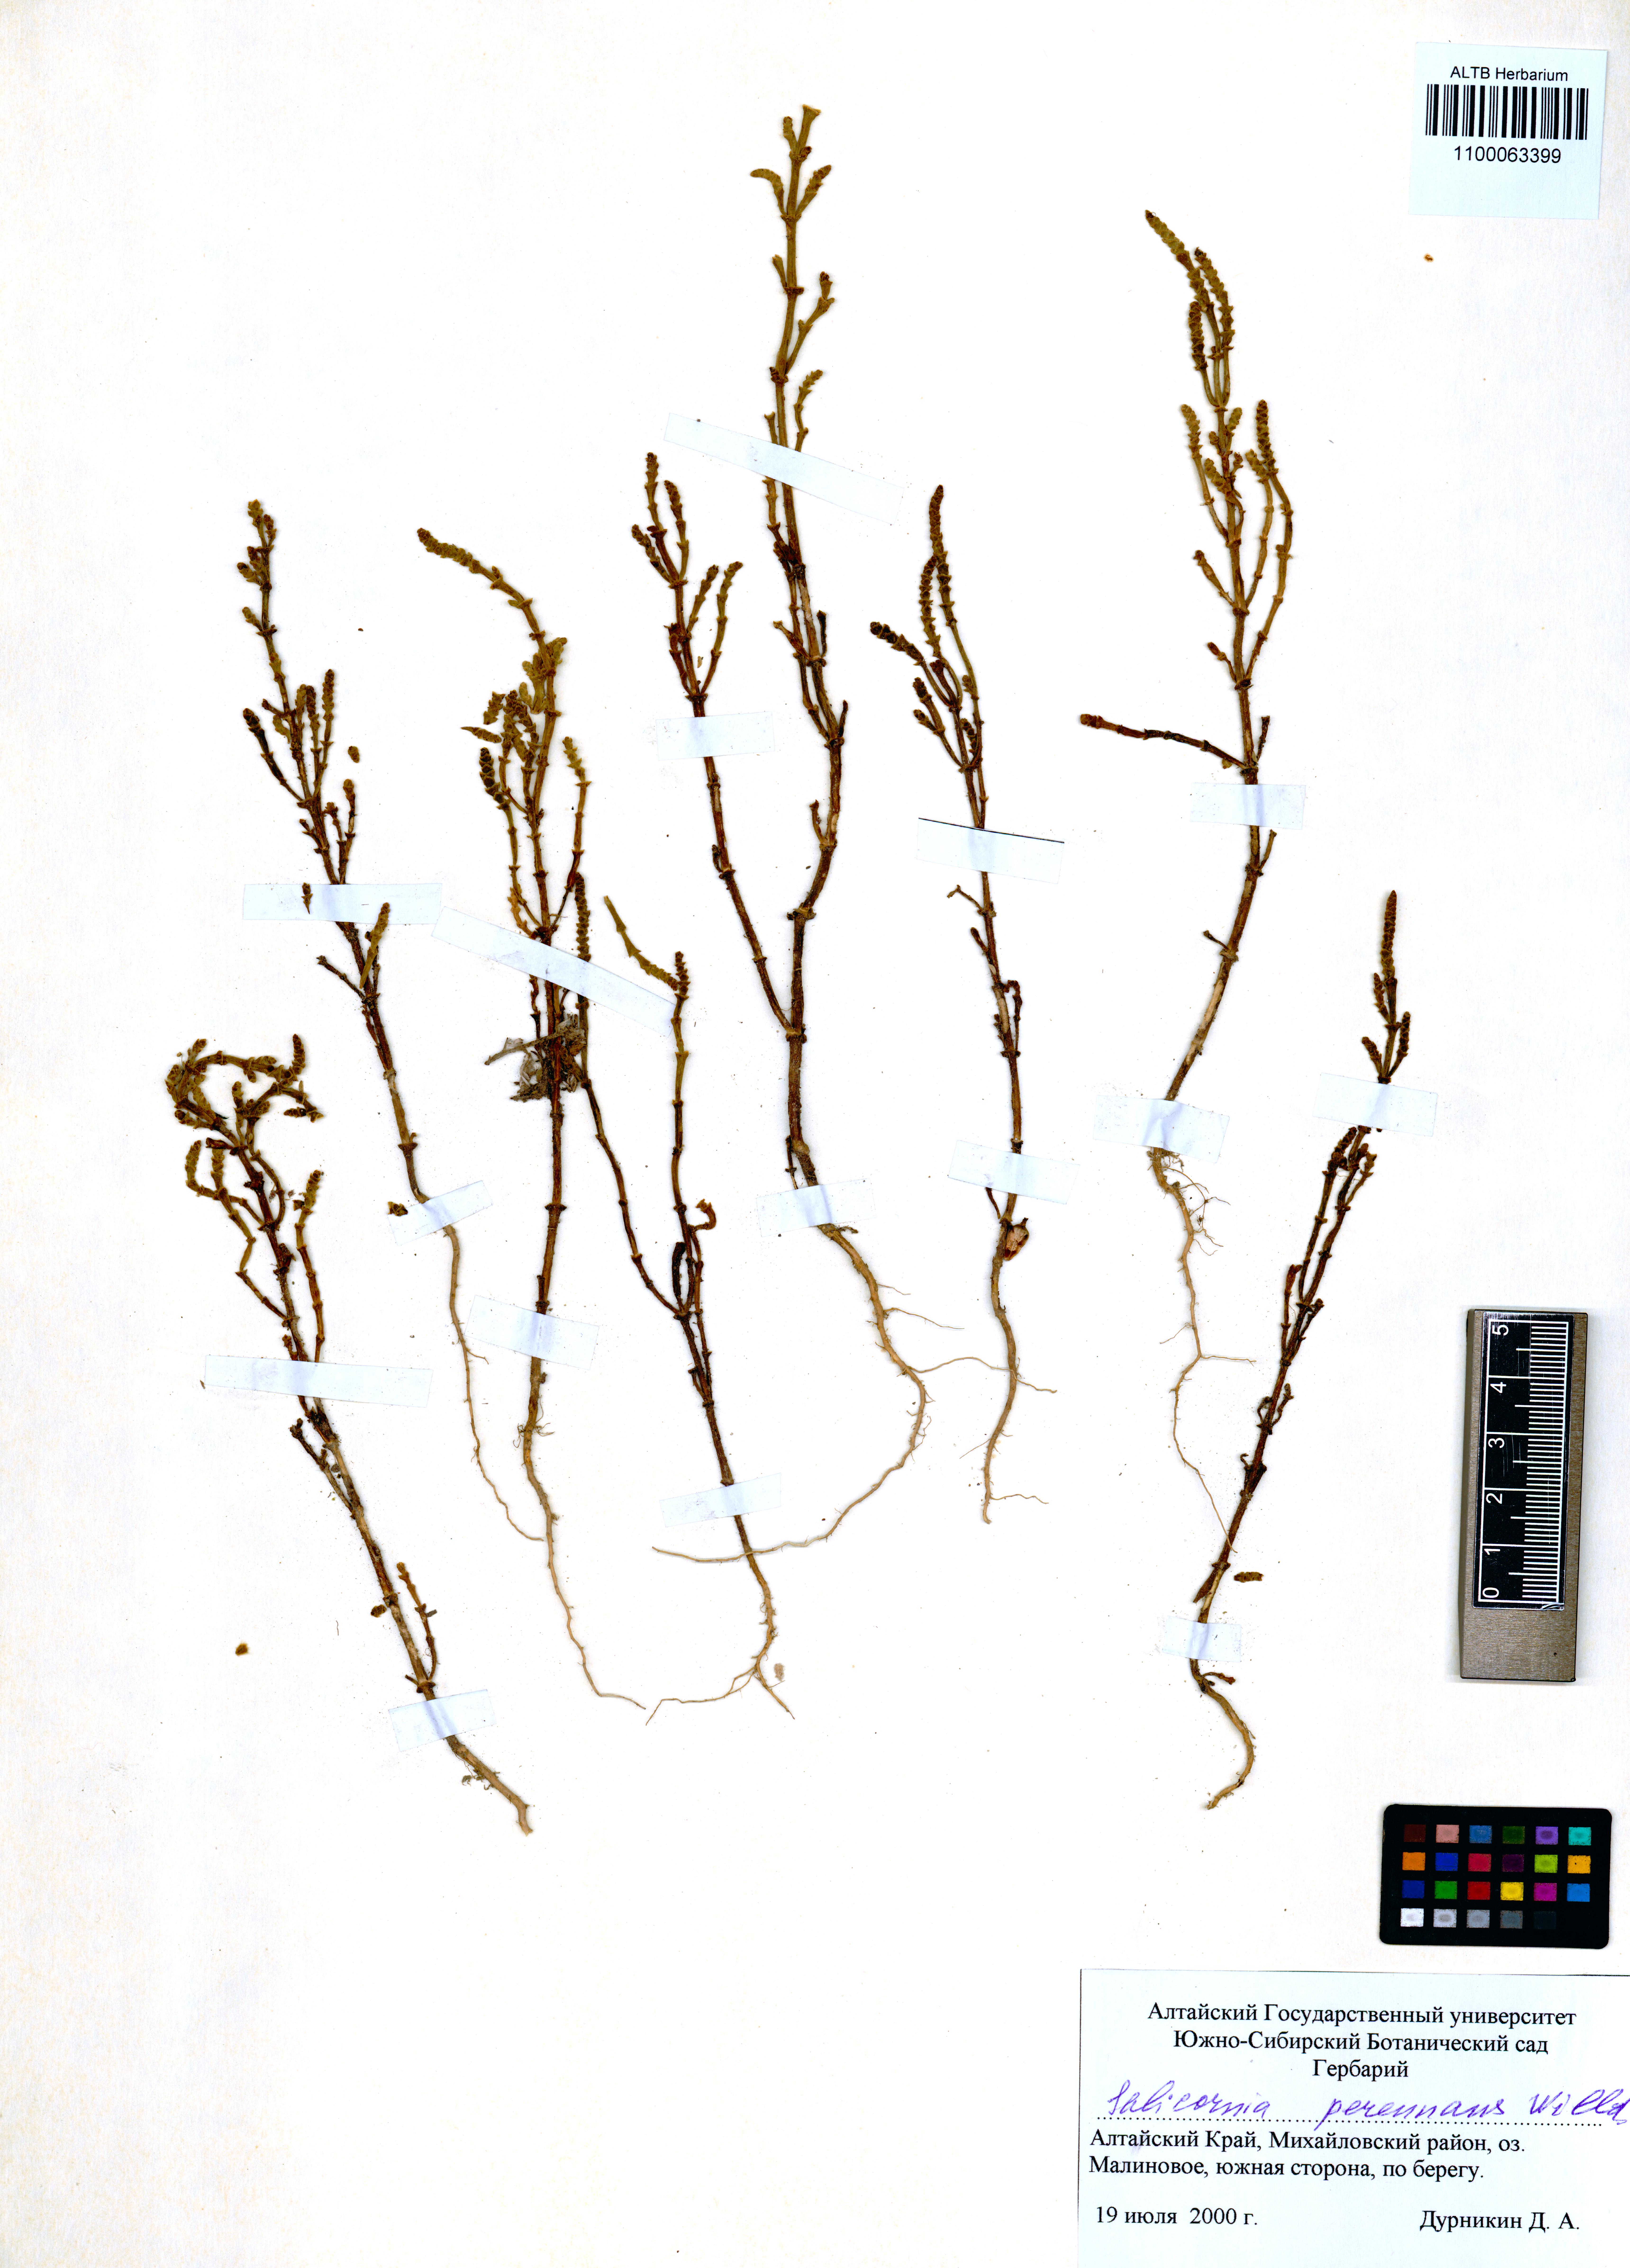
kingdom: Plantae
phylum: Tracheophyta
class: Magnoliopsida
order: Caryophyllales
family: Amaranthaceae
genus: Salicornia
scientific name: Salicornia perennans
